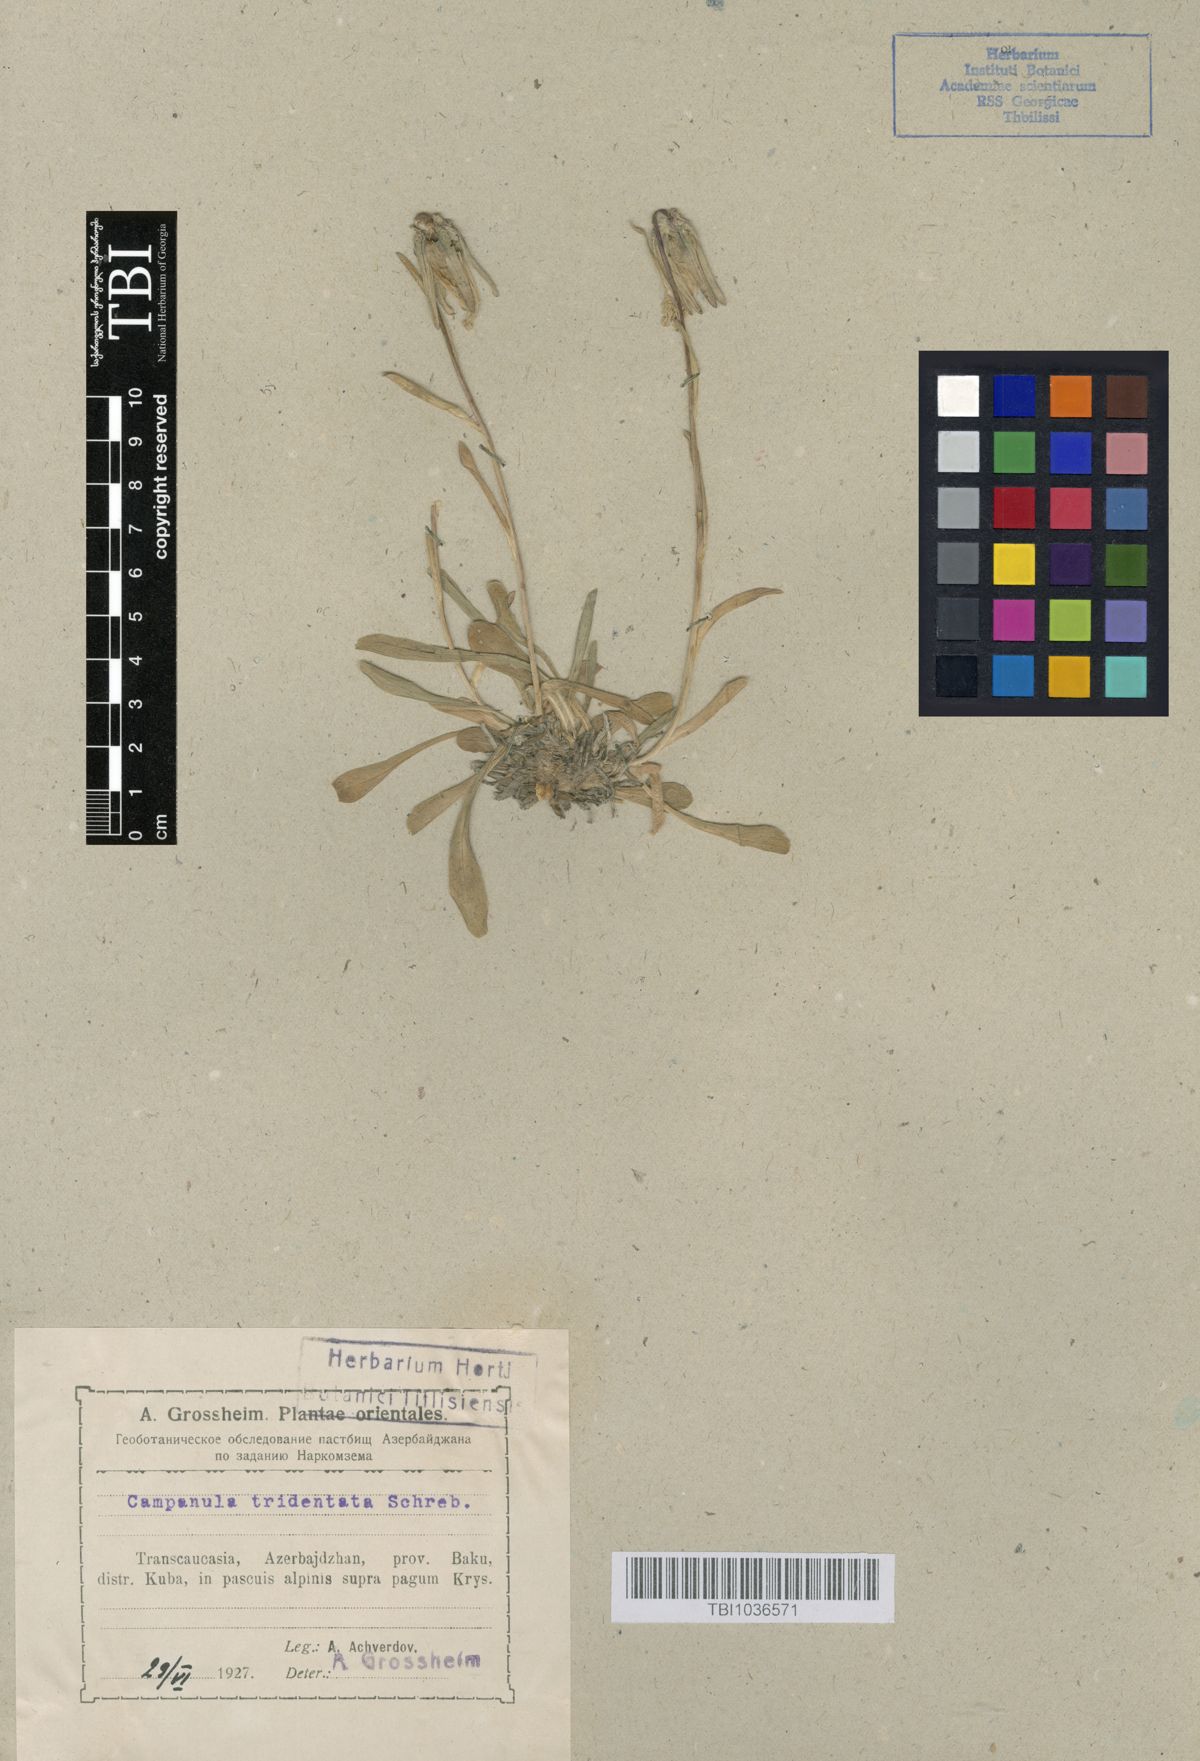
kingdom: Plantae
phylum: Tracheophyta
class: Magnoliopsida
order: Asterales
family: Campanulaceae
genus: Campanula
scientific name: Campanula tridentata
